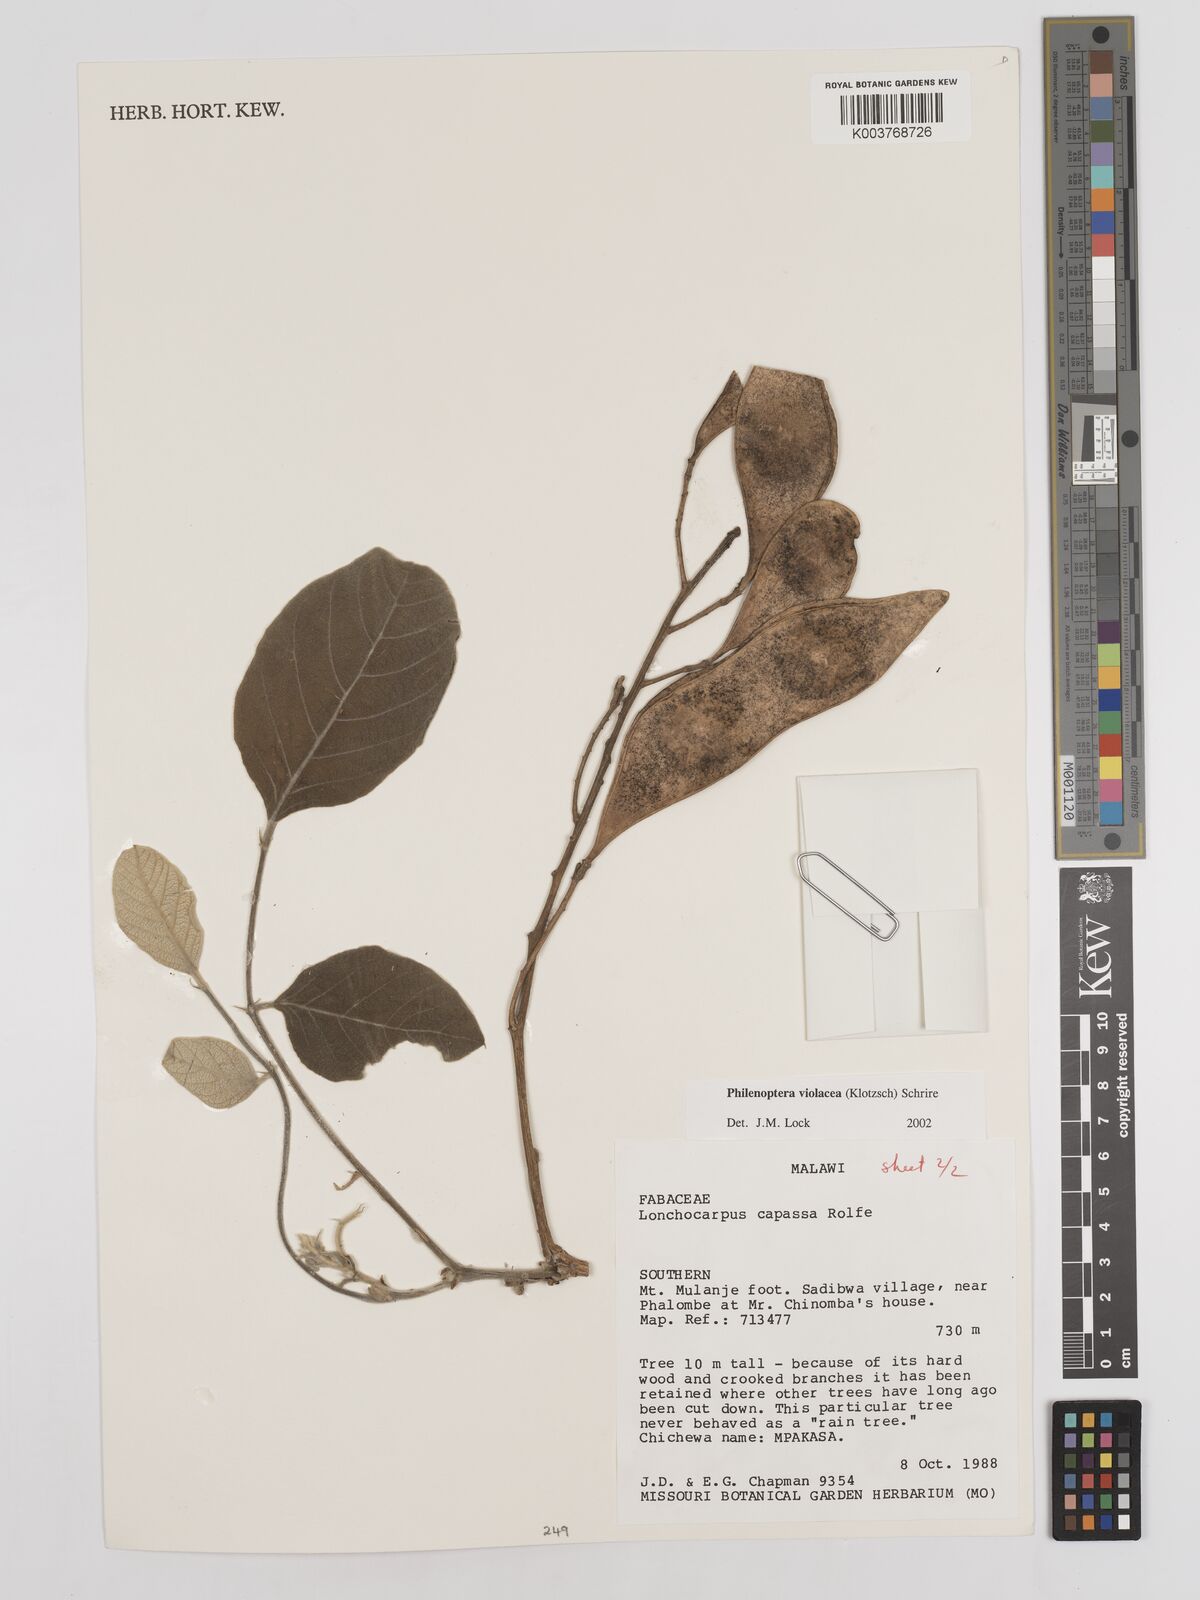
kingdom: Plantae
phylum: Tracheophyta
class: Magnoliopsida
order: Fabales
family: Fabaceae
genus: Philenoptera
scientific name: Philenoptera violacea
